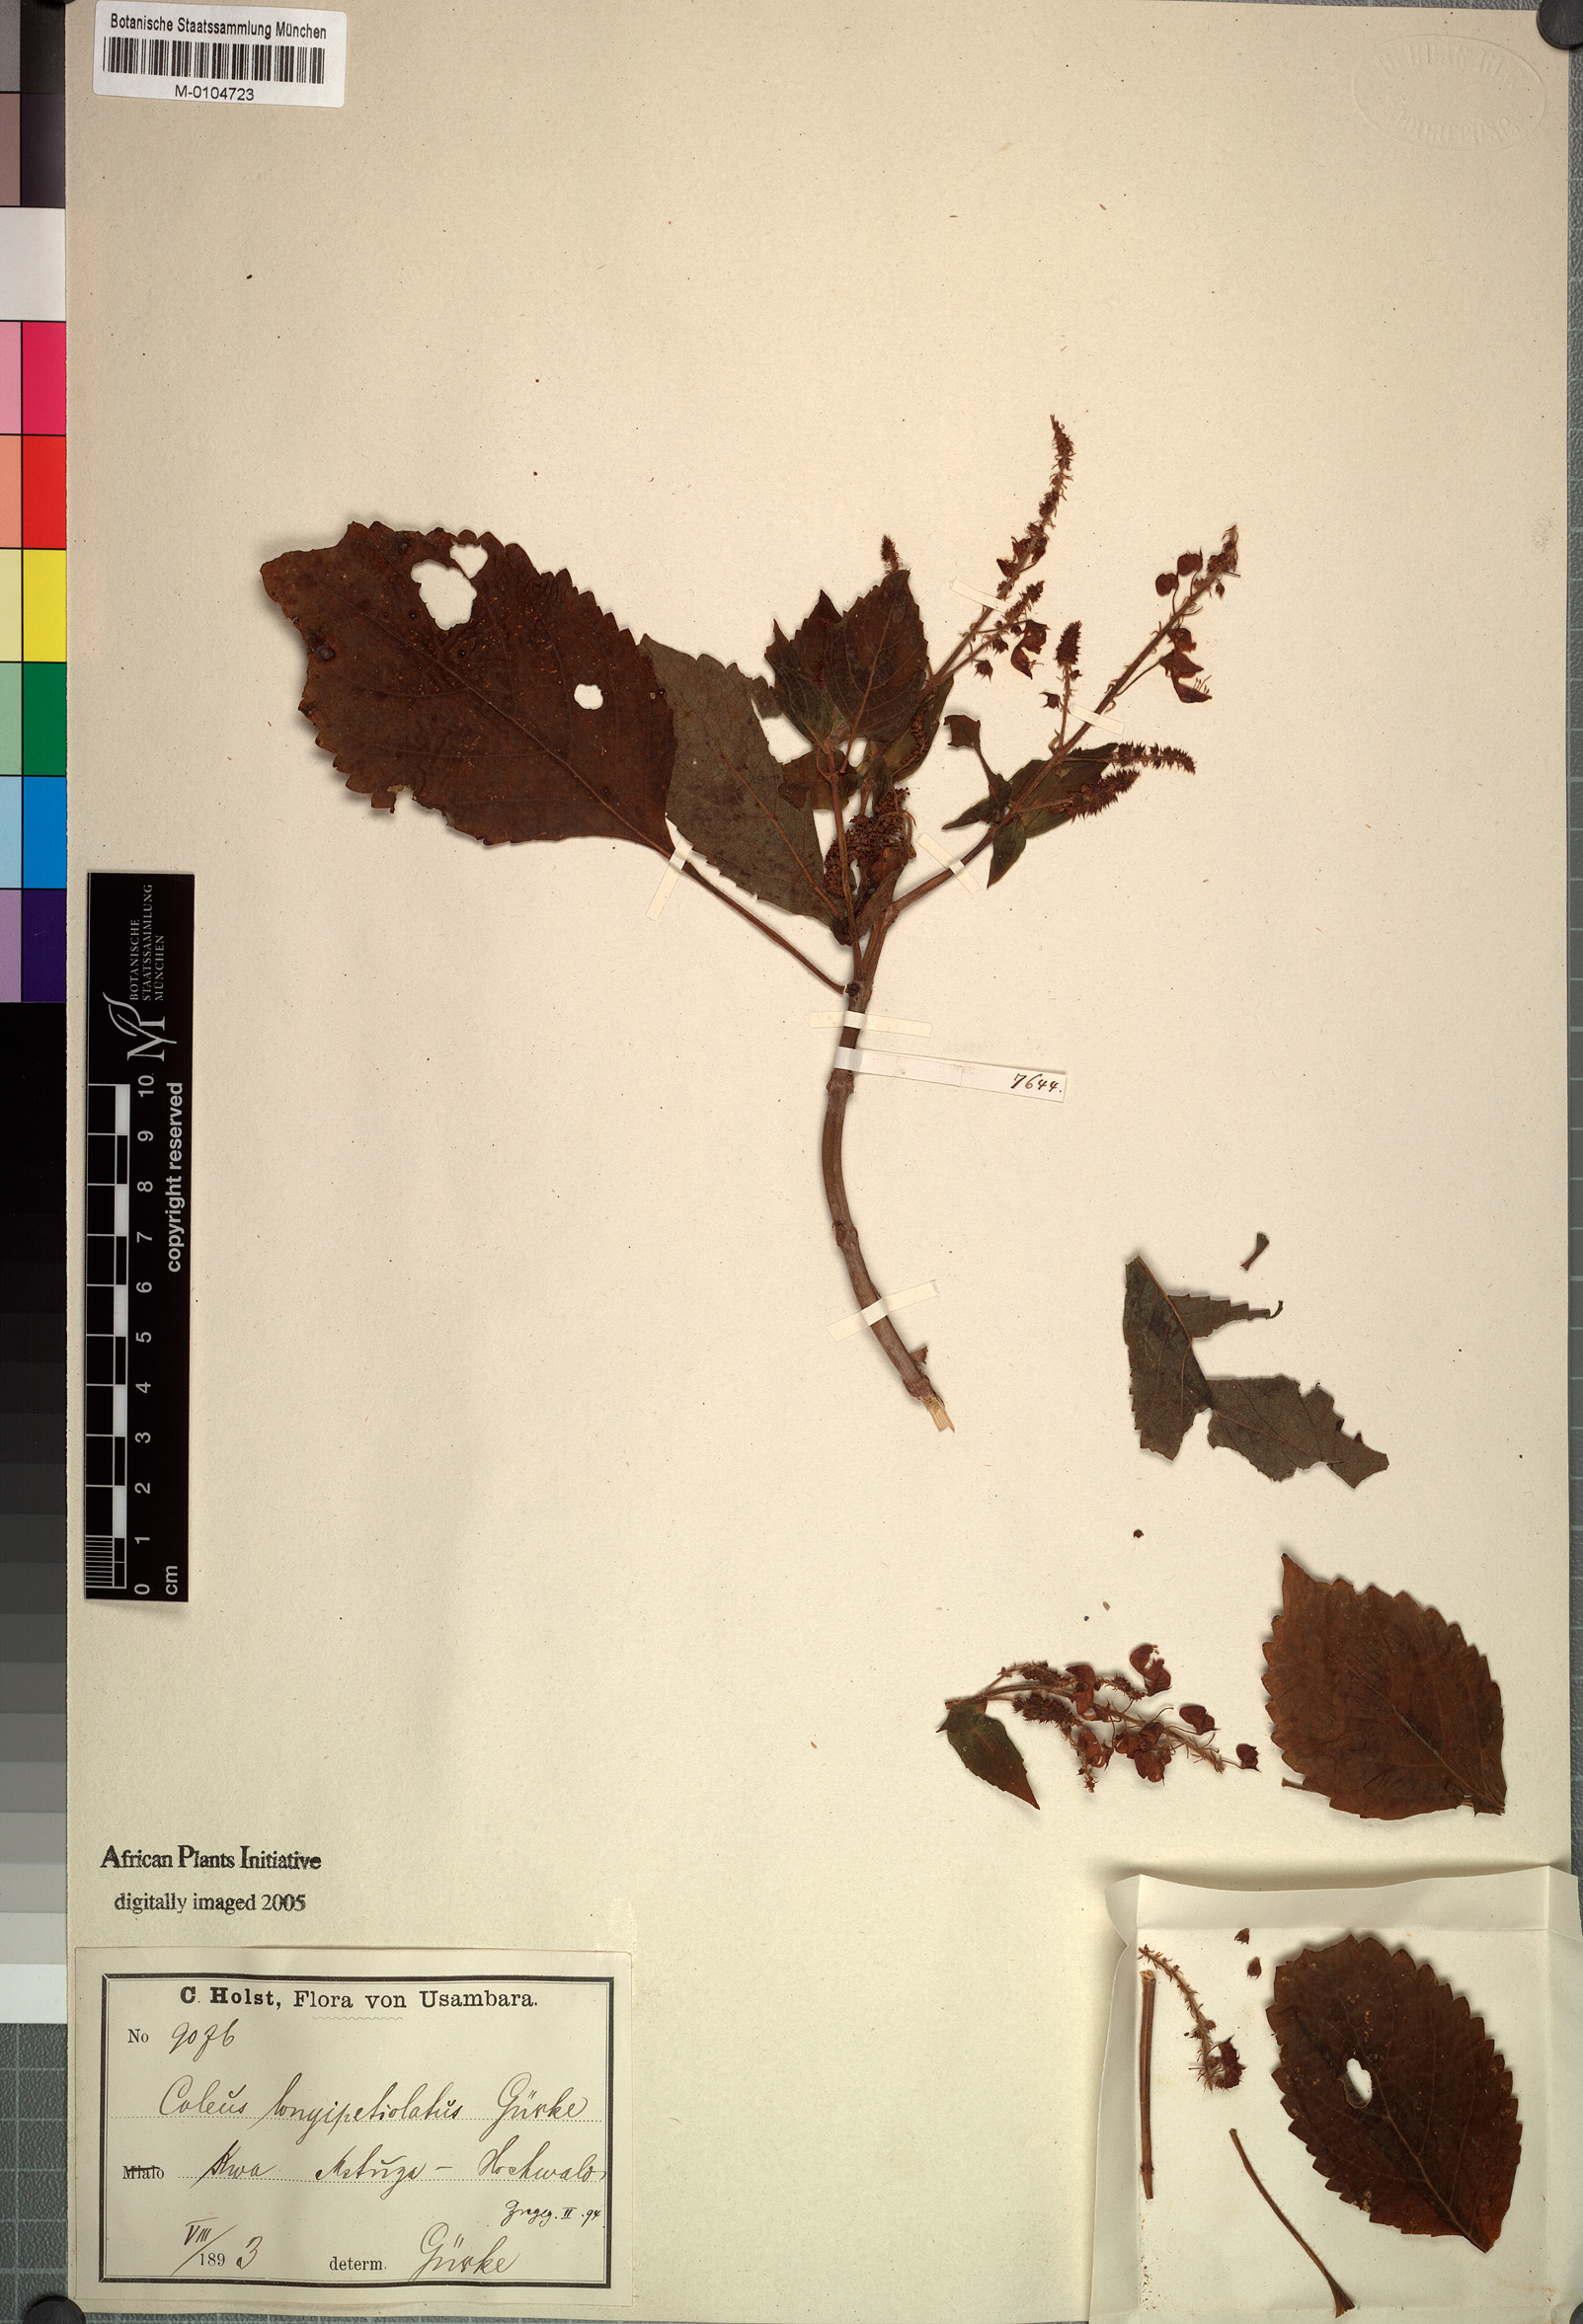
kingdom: Plantae
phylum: Tracheophyta
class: Magnoliopsida
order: Lamiales
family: Lamiaceae
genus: Coleus
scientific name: Coleus longipetiolatus
